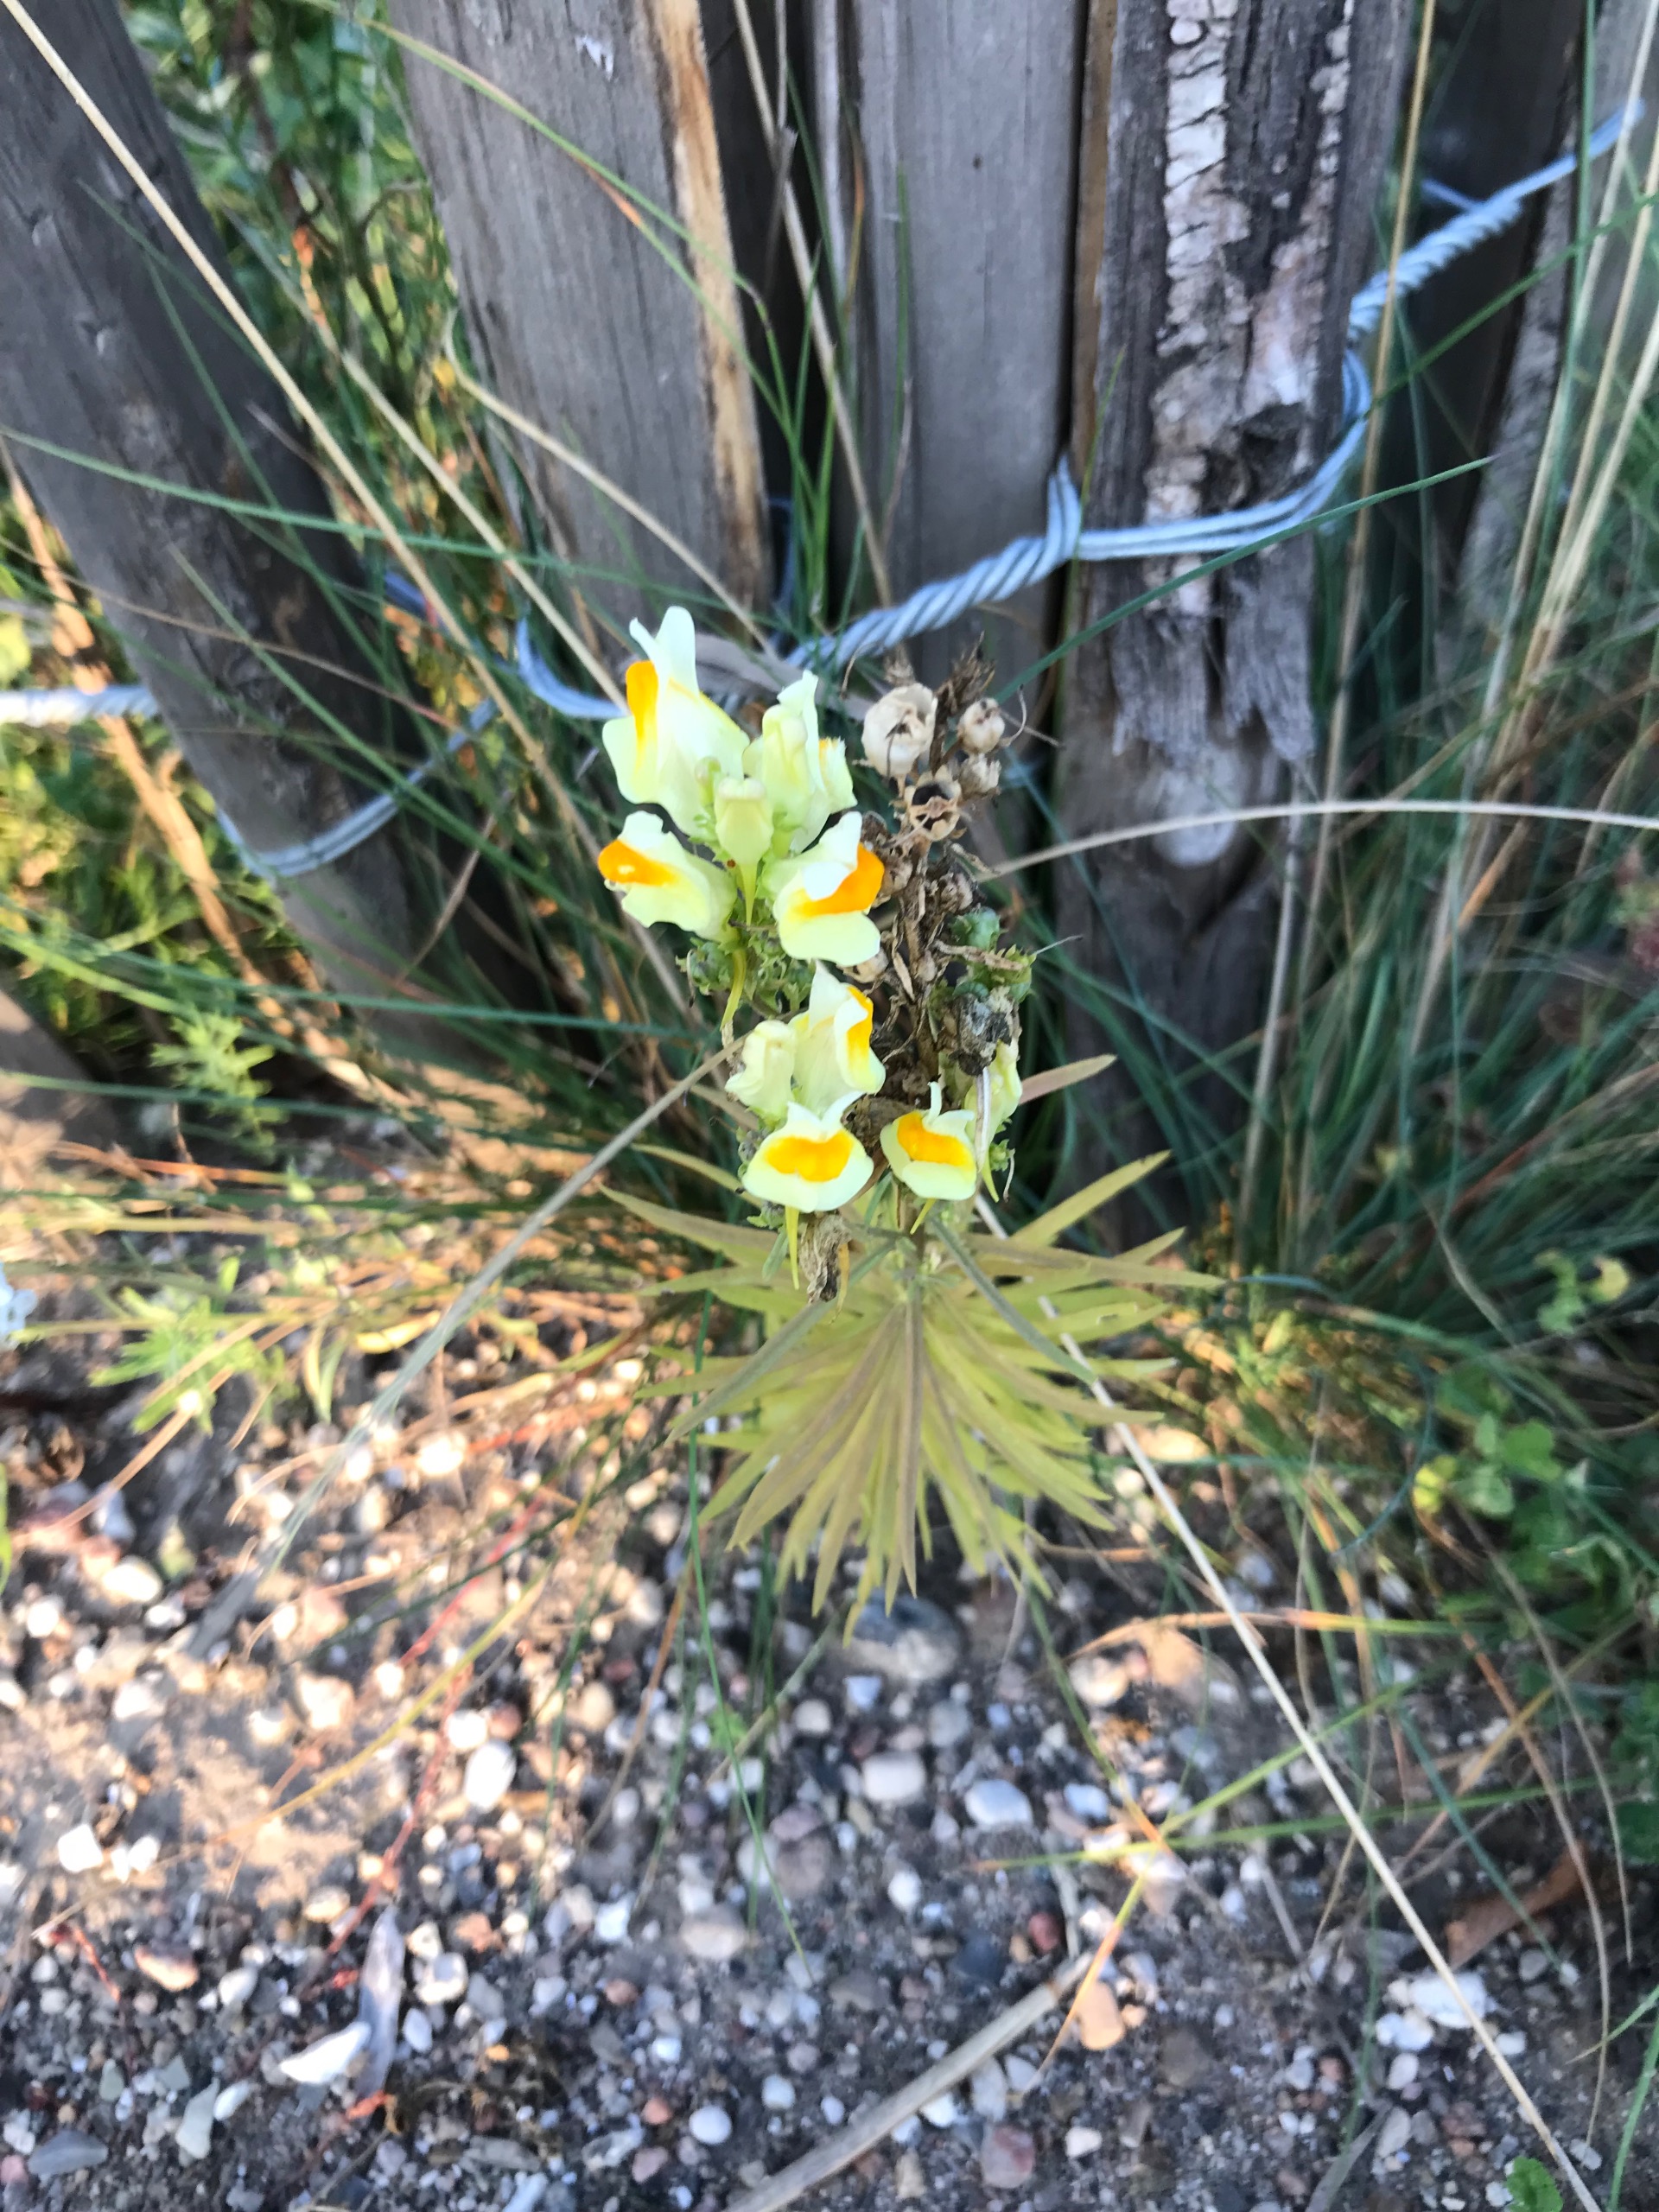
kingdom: Plantae
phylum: Tracheophyta
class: Magnoliopsida
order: Lamiales
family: Plantaginaceae
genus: Linaria
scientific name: Linaria vulgaris
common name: Almindelig torskemund
